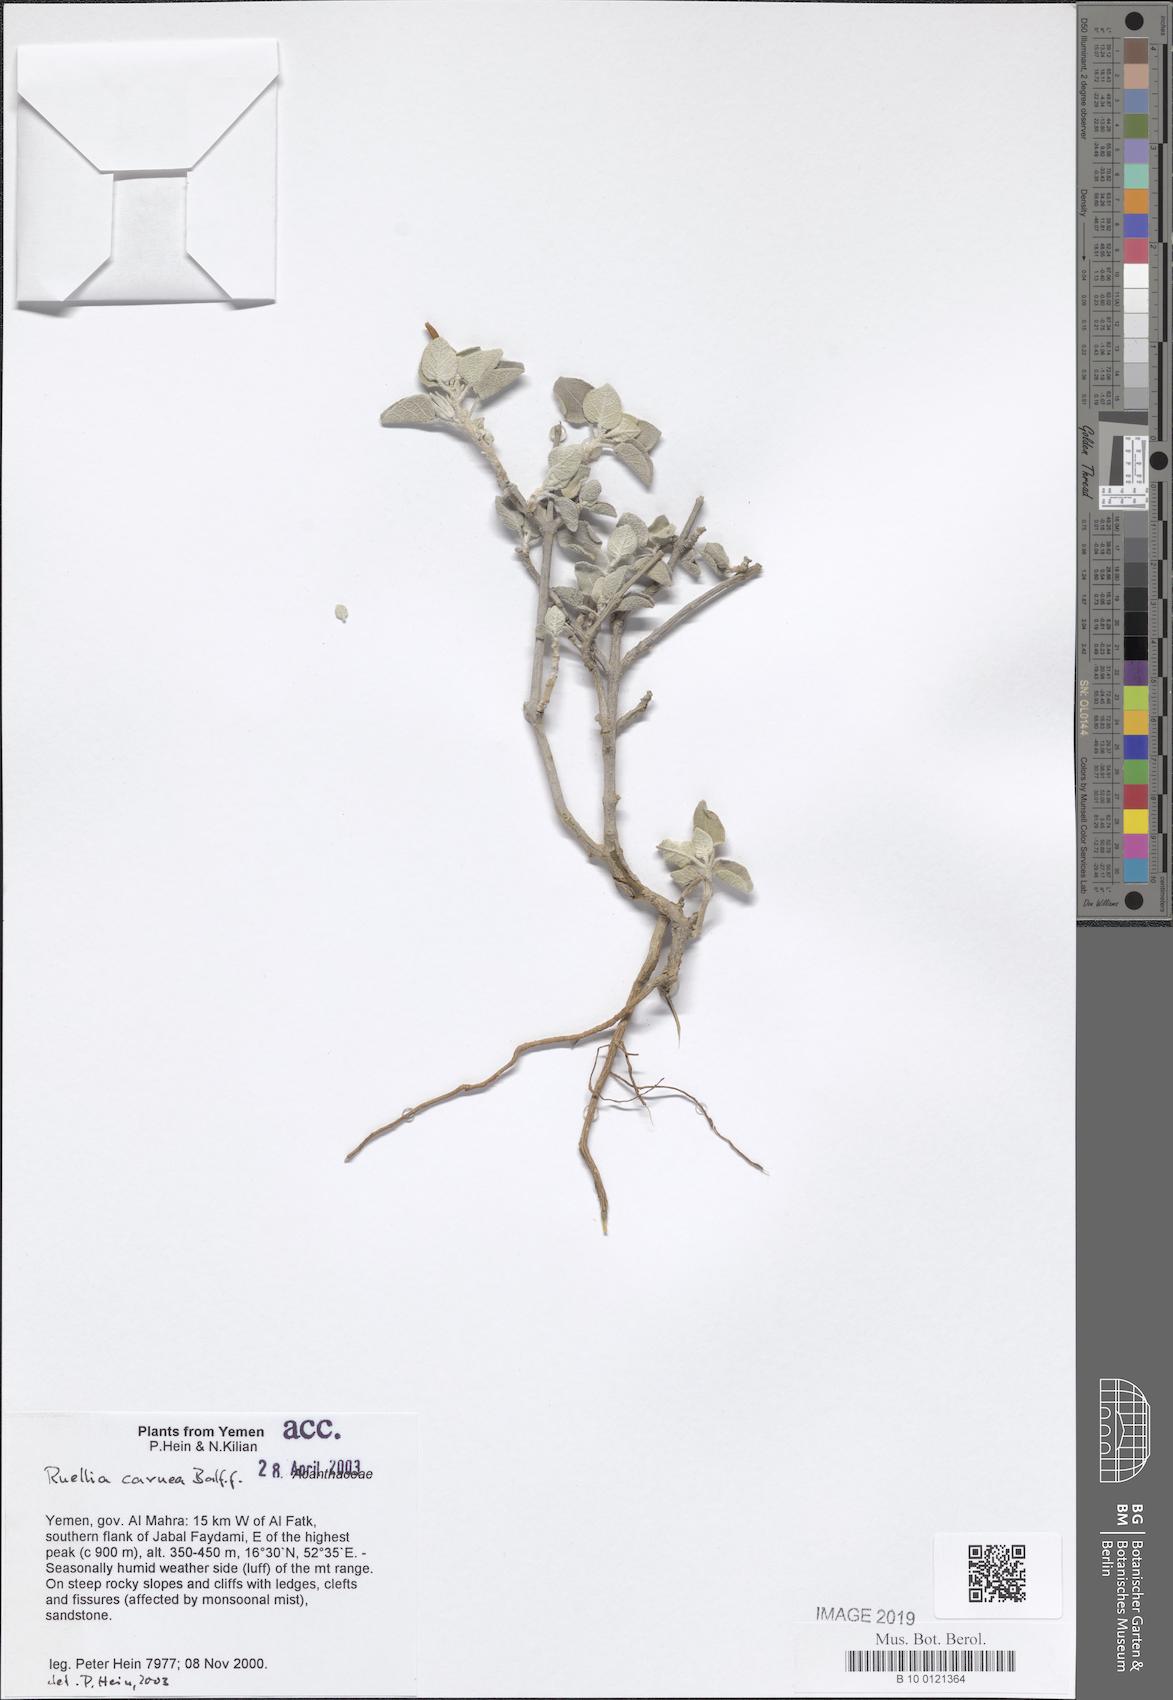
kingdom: Plantae
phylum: Tracheophyta
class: Magnoliopsida
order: Lamiales
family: Acanthaceae
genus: Ruellia
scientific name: Ruellia carnea
